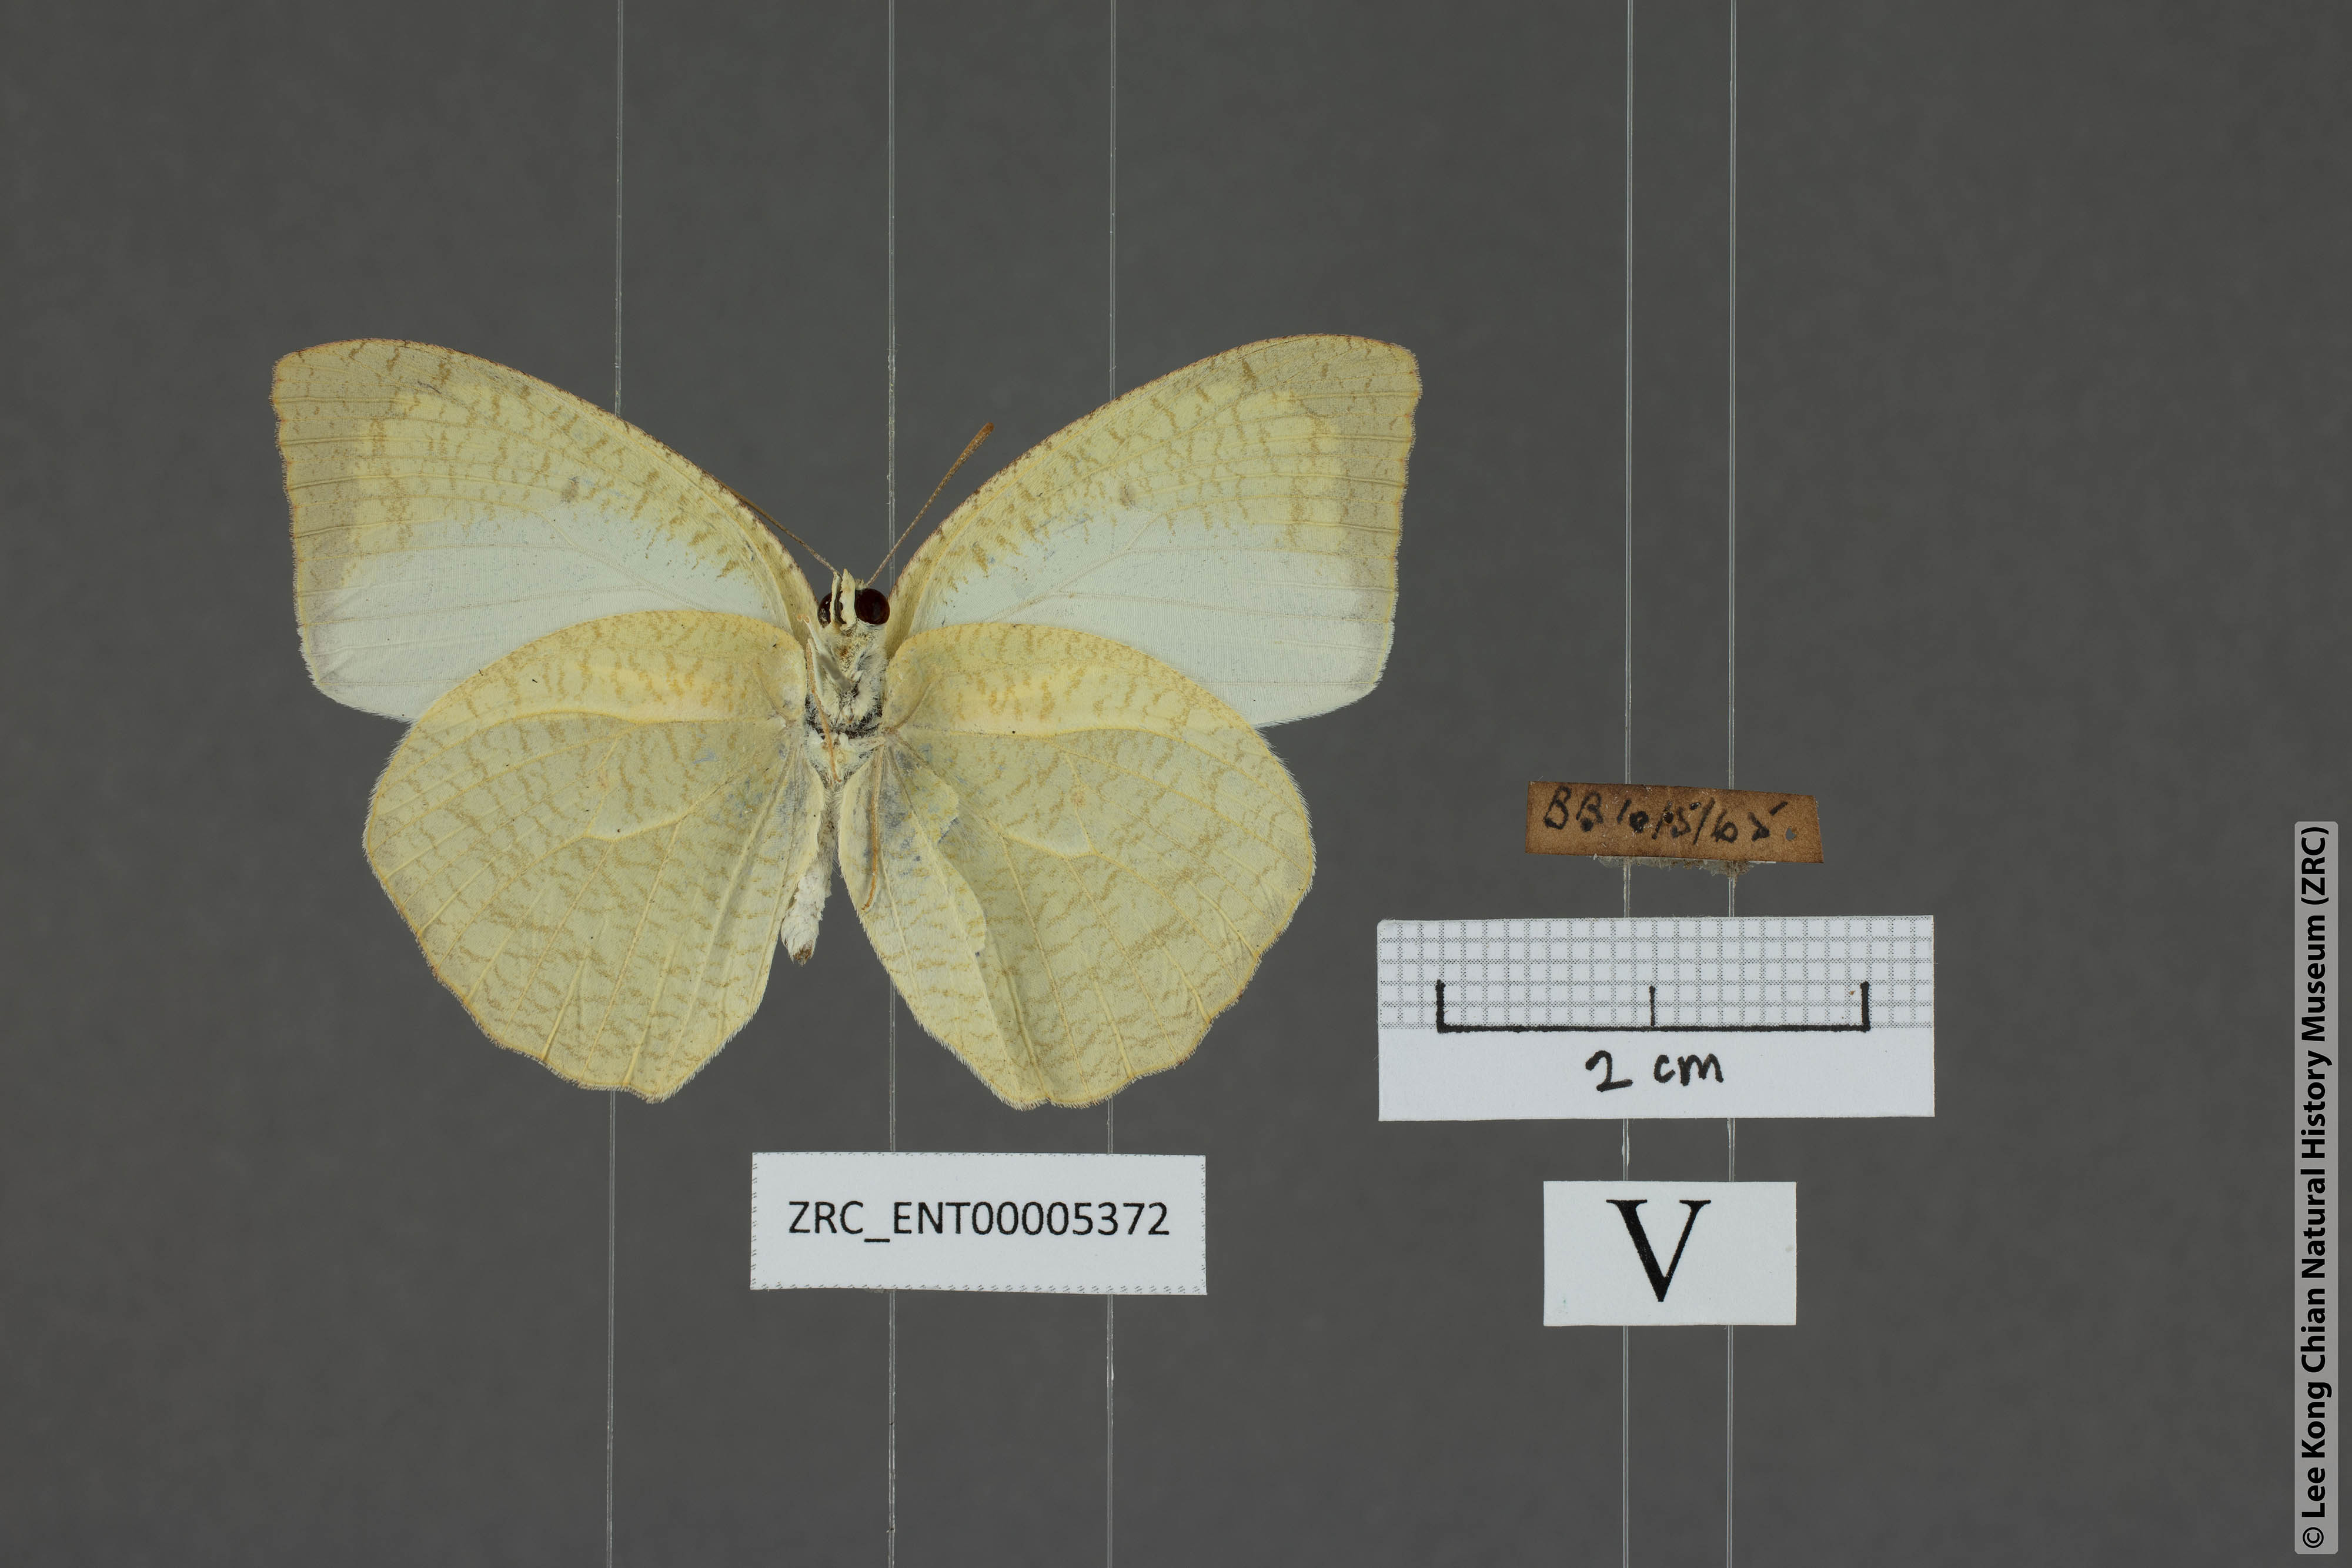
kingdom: Animalia
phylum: Arthropoda
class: Insecta
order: Lepidoptera
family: Pieridae
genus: Catopsilia
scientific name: Catopsilia pyranthe
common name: Mottled emigrant
